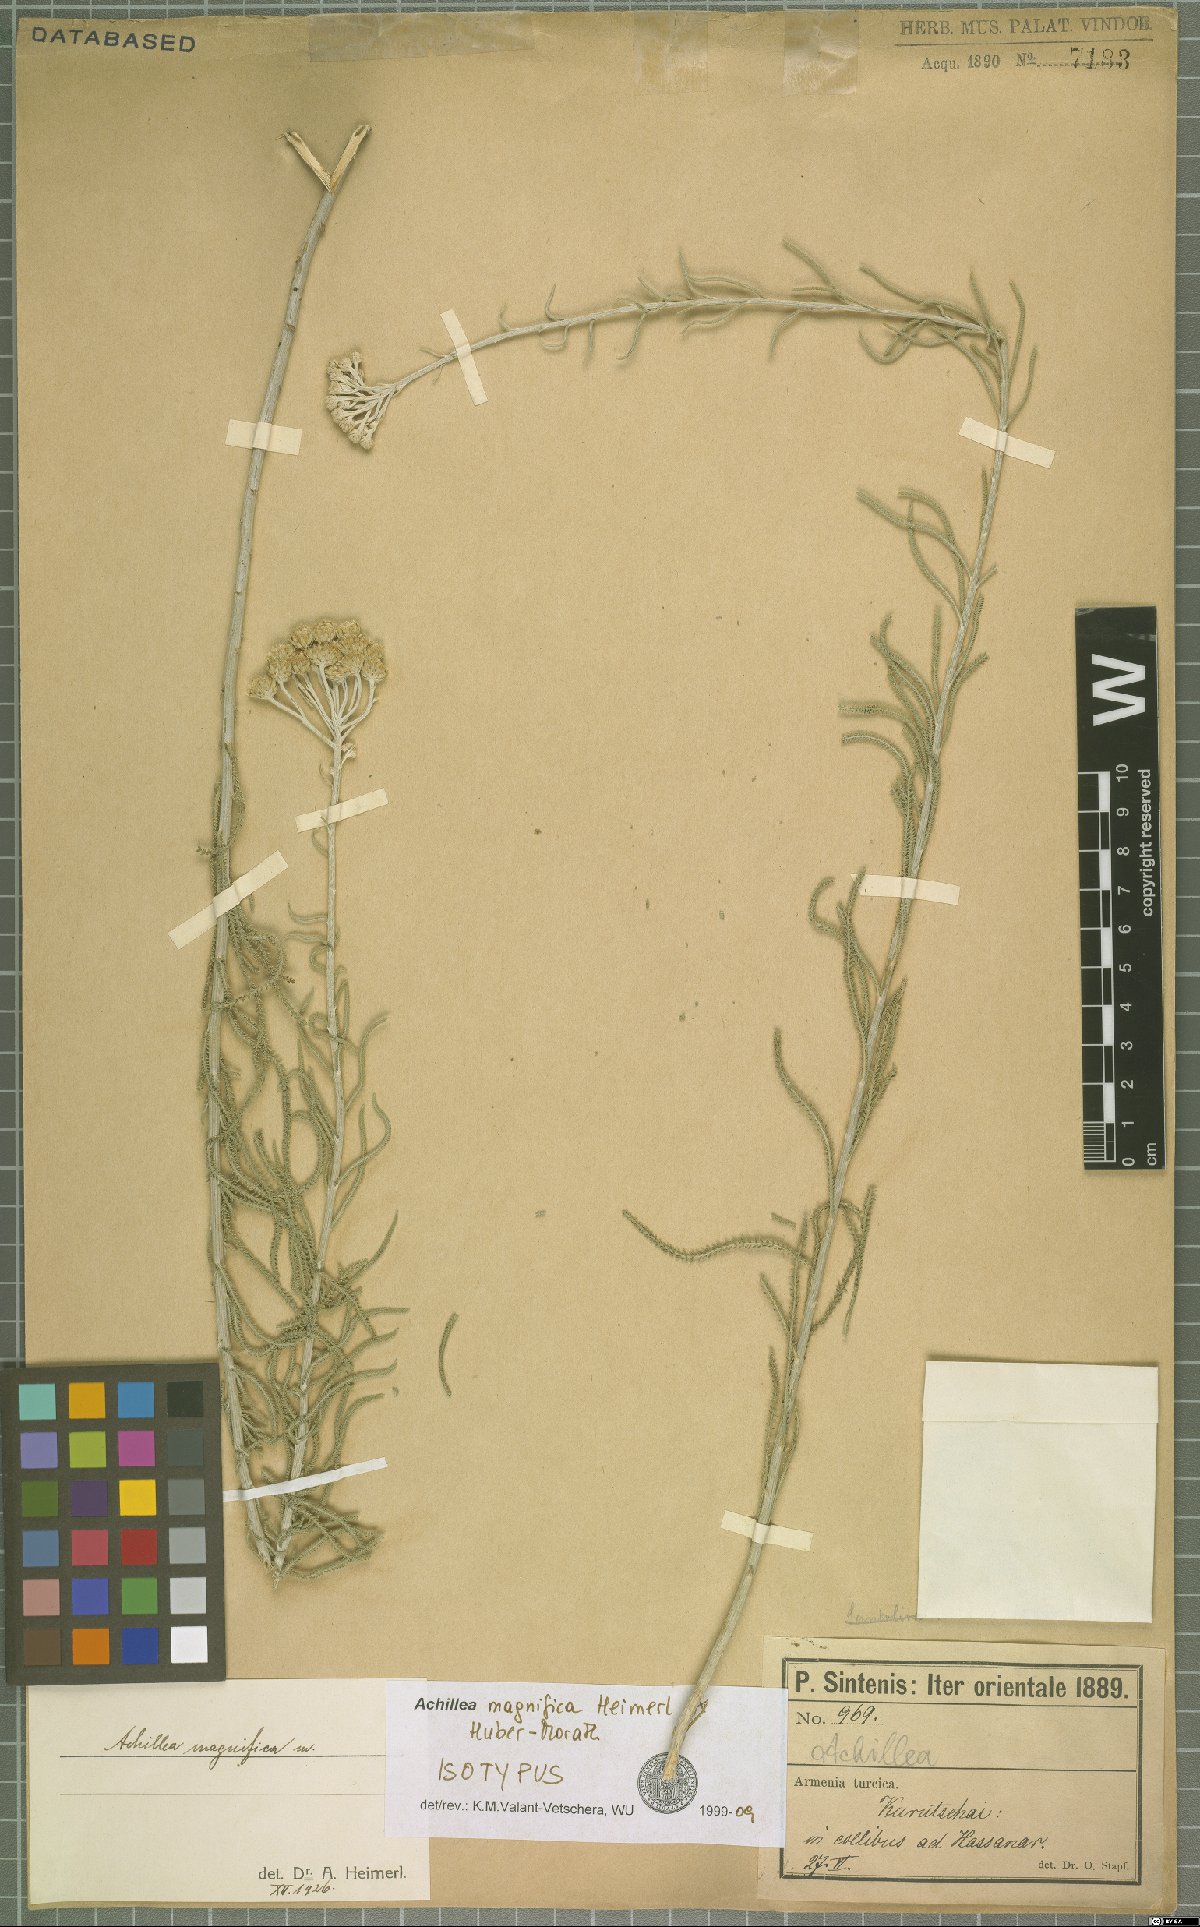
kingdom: Plantae
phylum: Tracheophyta
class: Magnoliopsida
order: Asterales
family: Asteraceae
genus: Achillea
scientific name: Achillea magnifica
